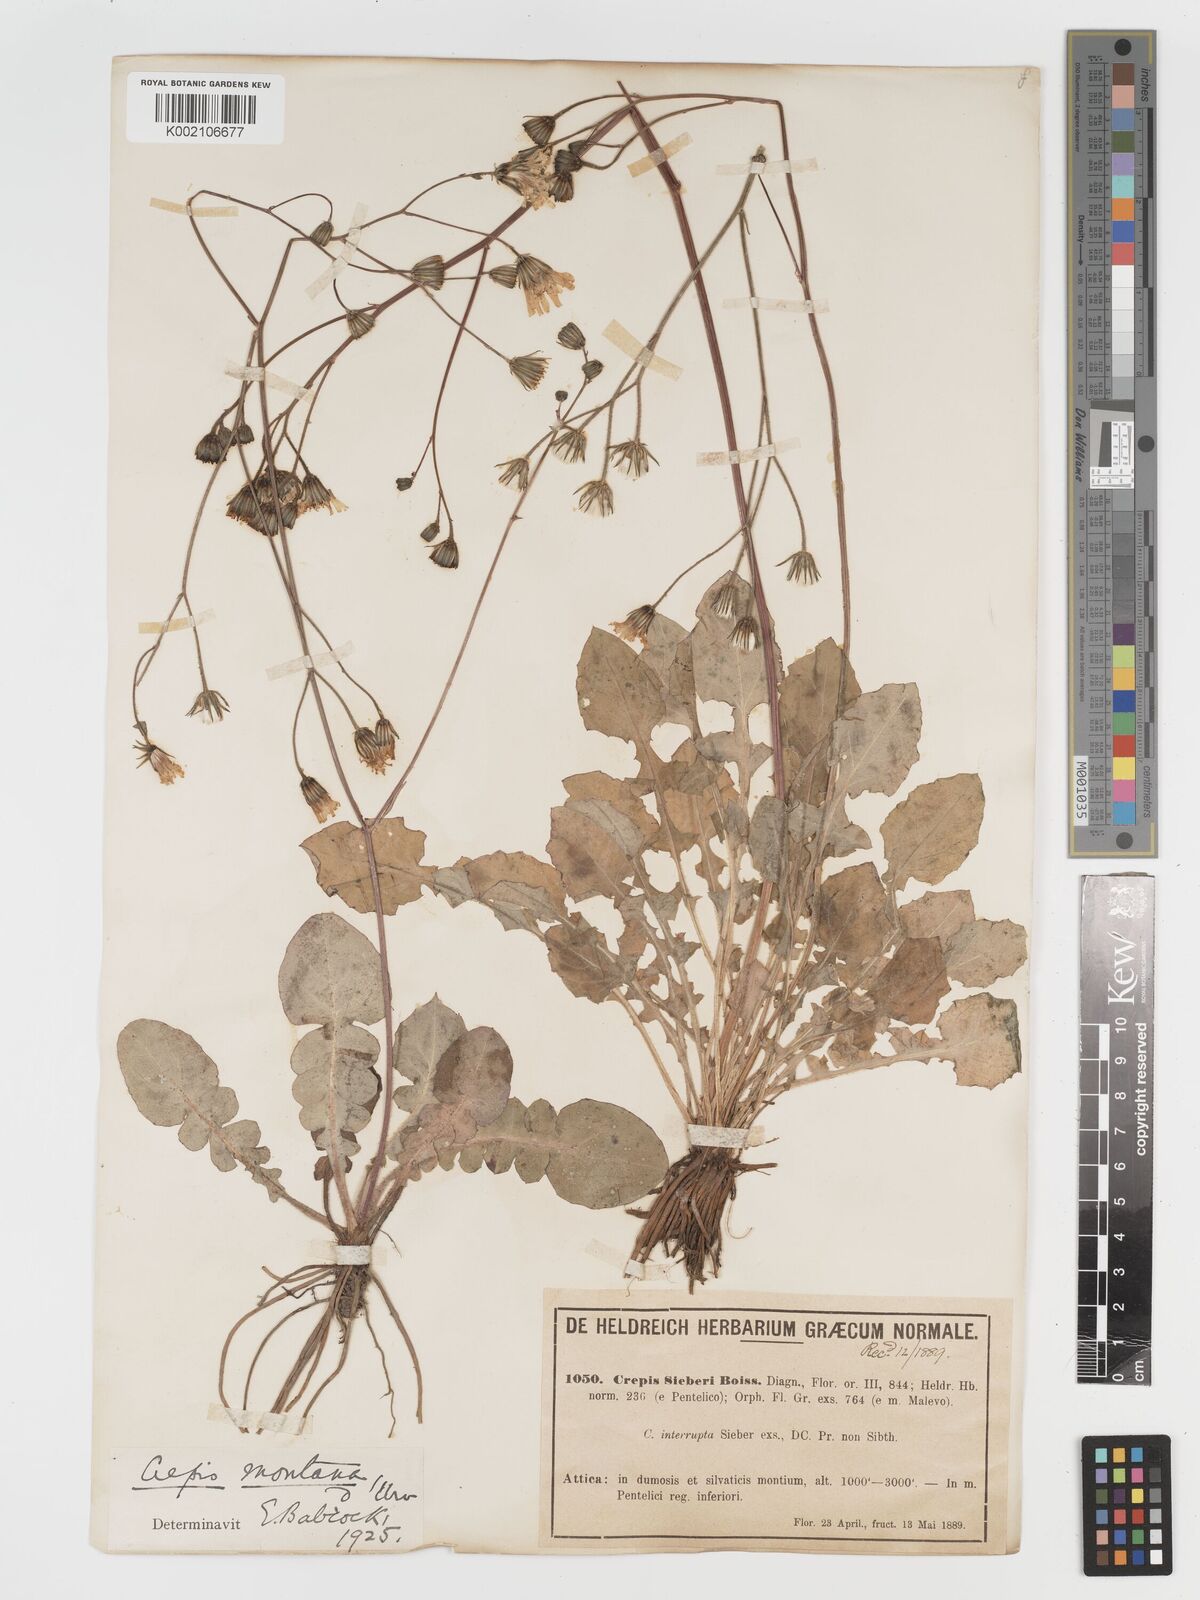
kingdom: Plantae
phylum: Tracheophyta
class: Magnoliopsida
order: Asterales
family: Asteraceae
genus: Crepis
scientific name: Crepis
